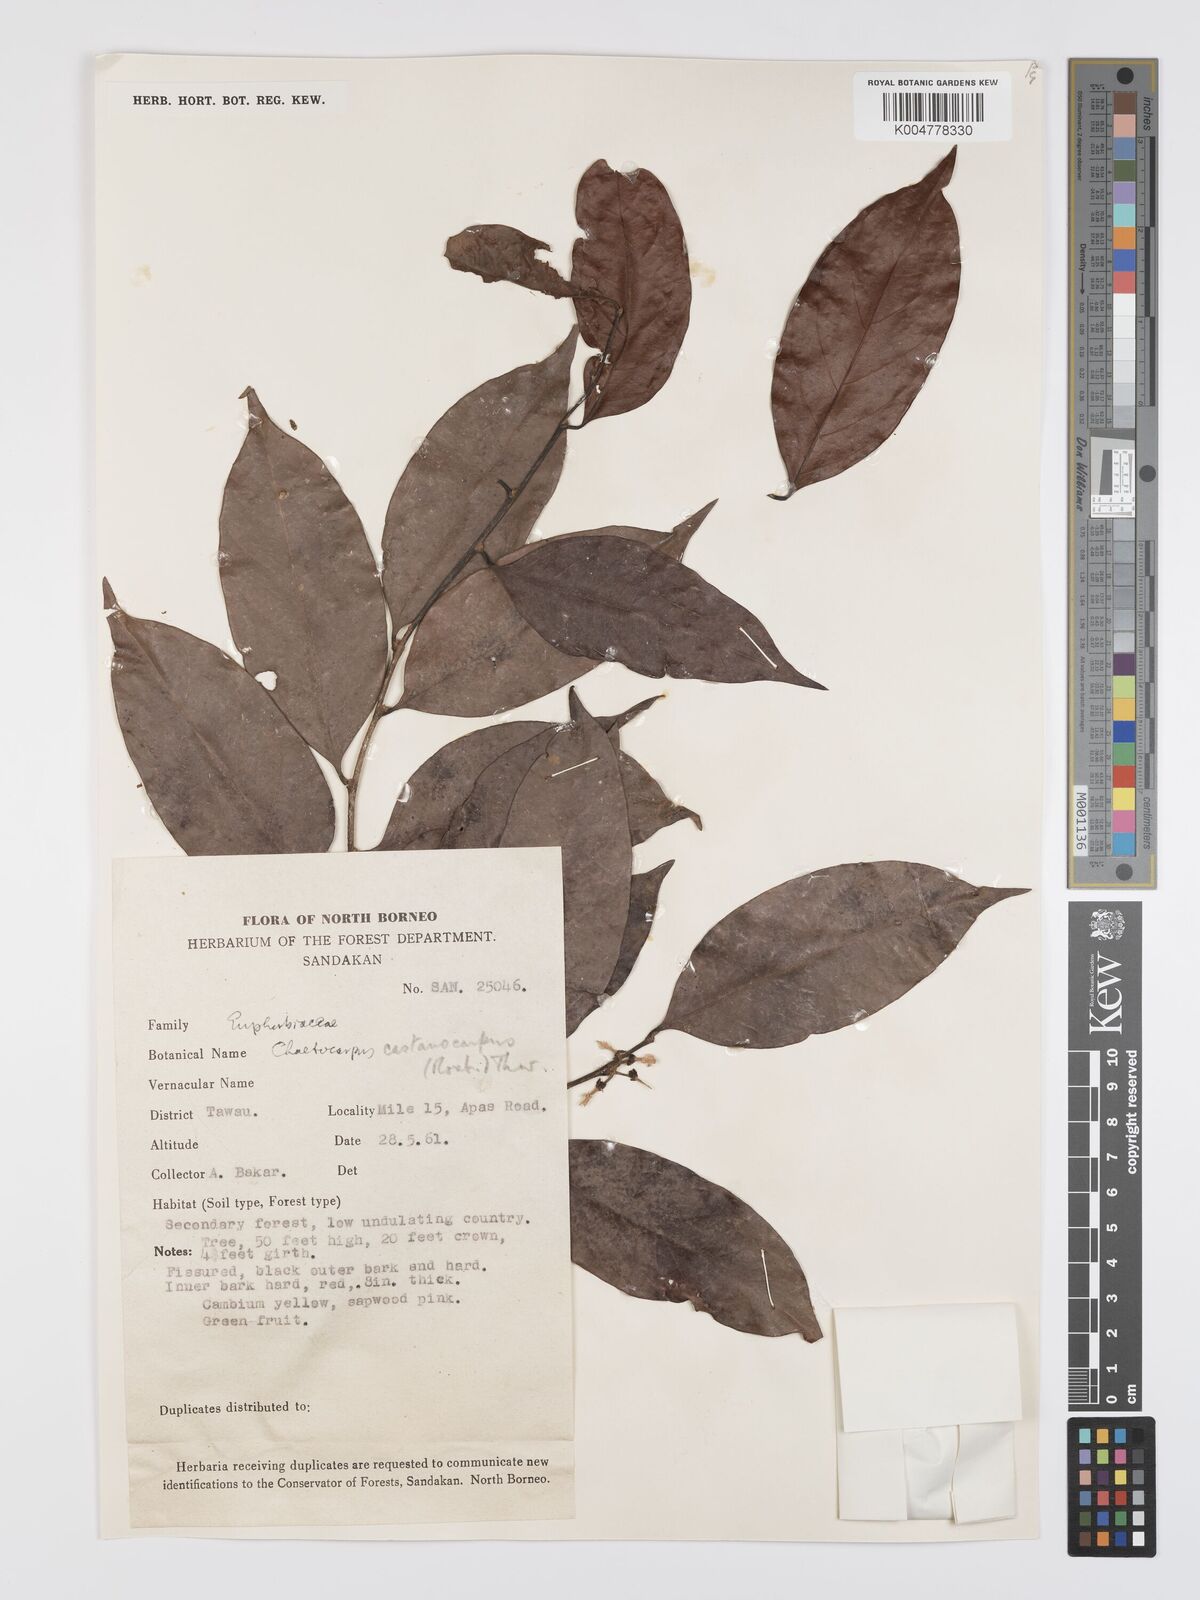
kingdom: Plantae
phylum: Tracheophyta
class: Magnoliopsida
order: Malpighiales
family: Peraceae
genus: Chaetocarpus
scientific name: Chaetocarpus castanocarpus
